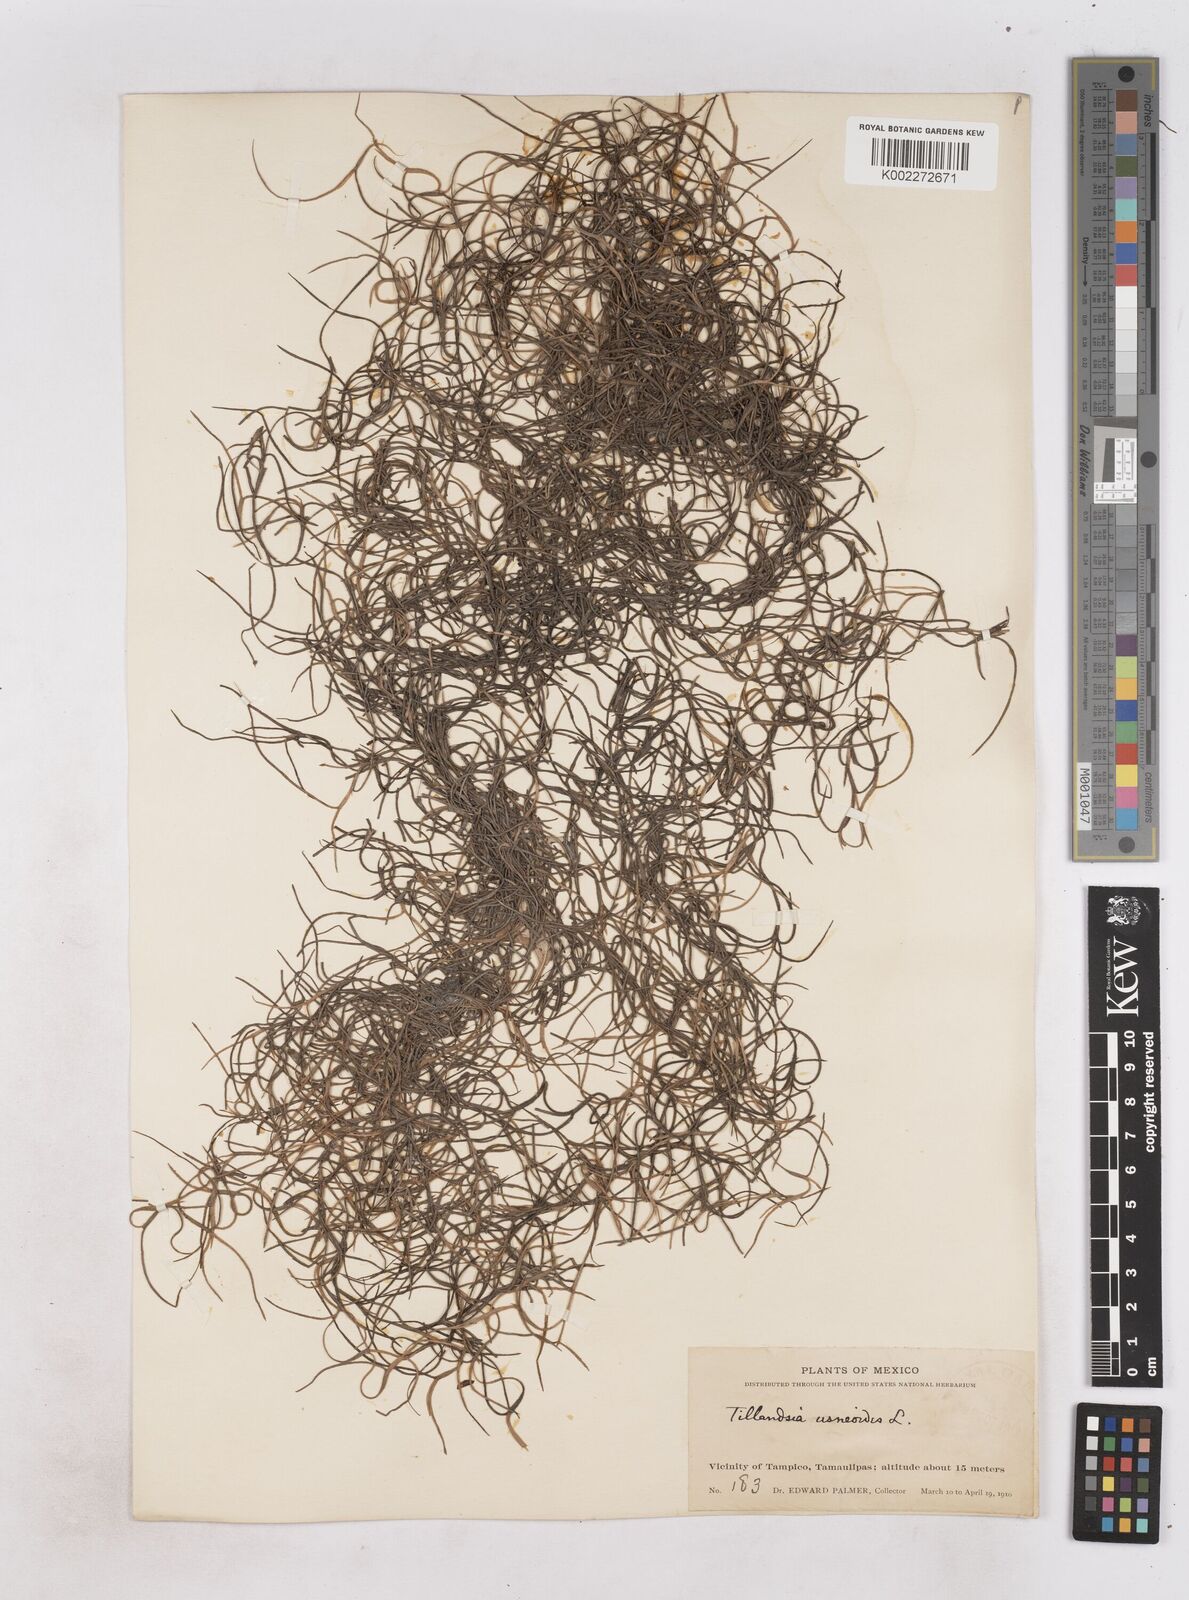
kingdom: Plantae
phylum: Tracheophyta
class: Liliopsida
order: Poales
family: Bromeliaceae
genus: Tillandsia
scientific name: Tillandsia usneoides
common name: Spanish moss
